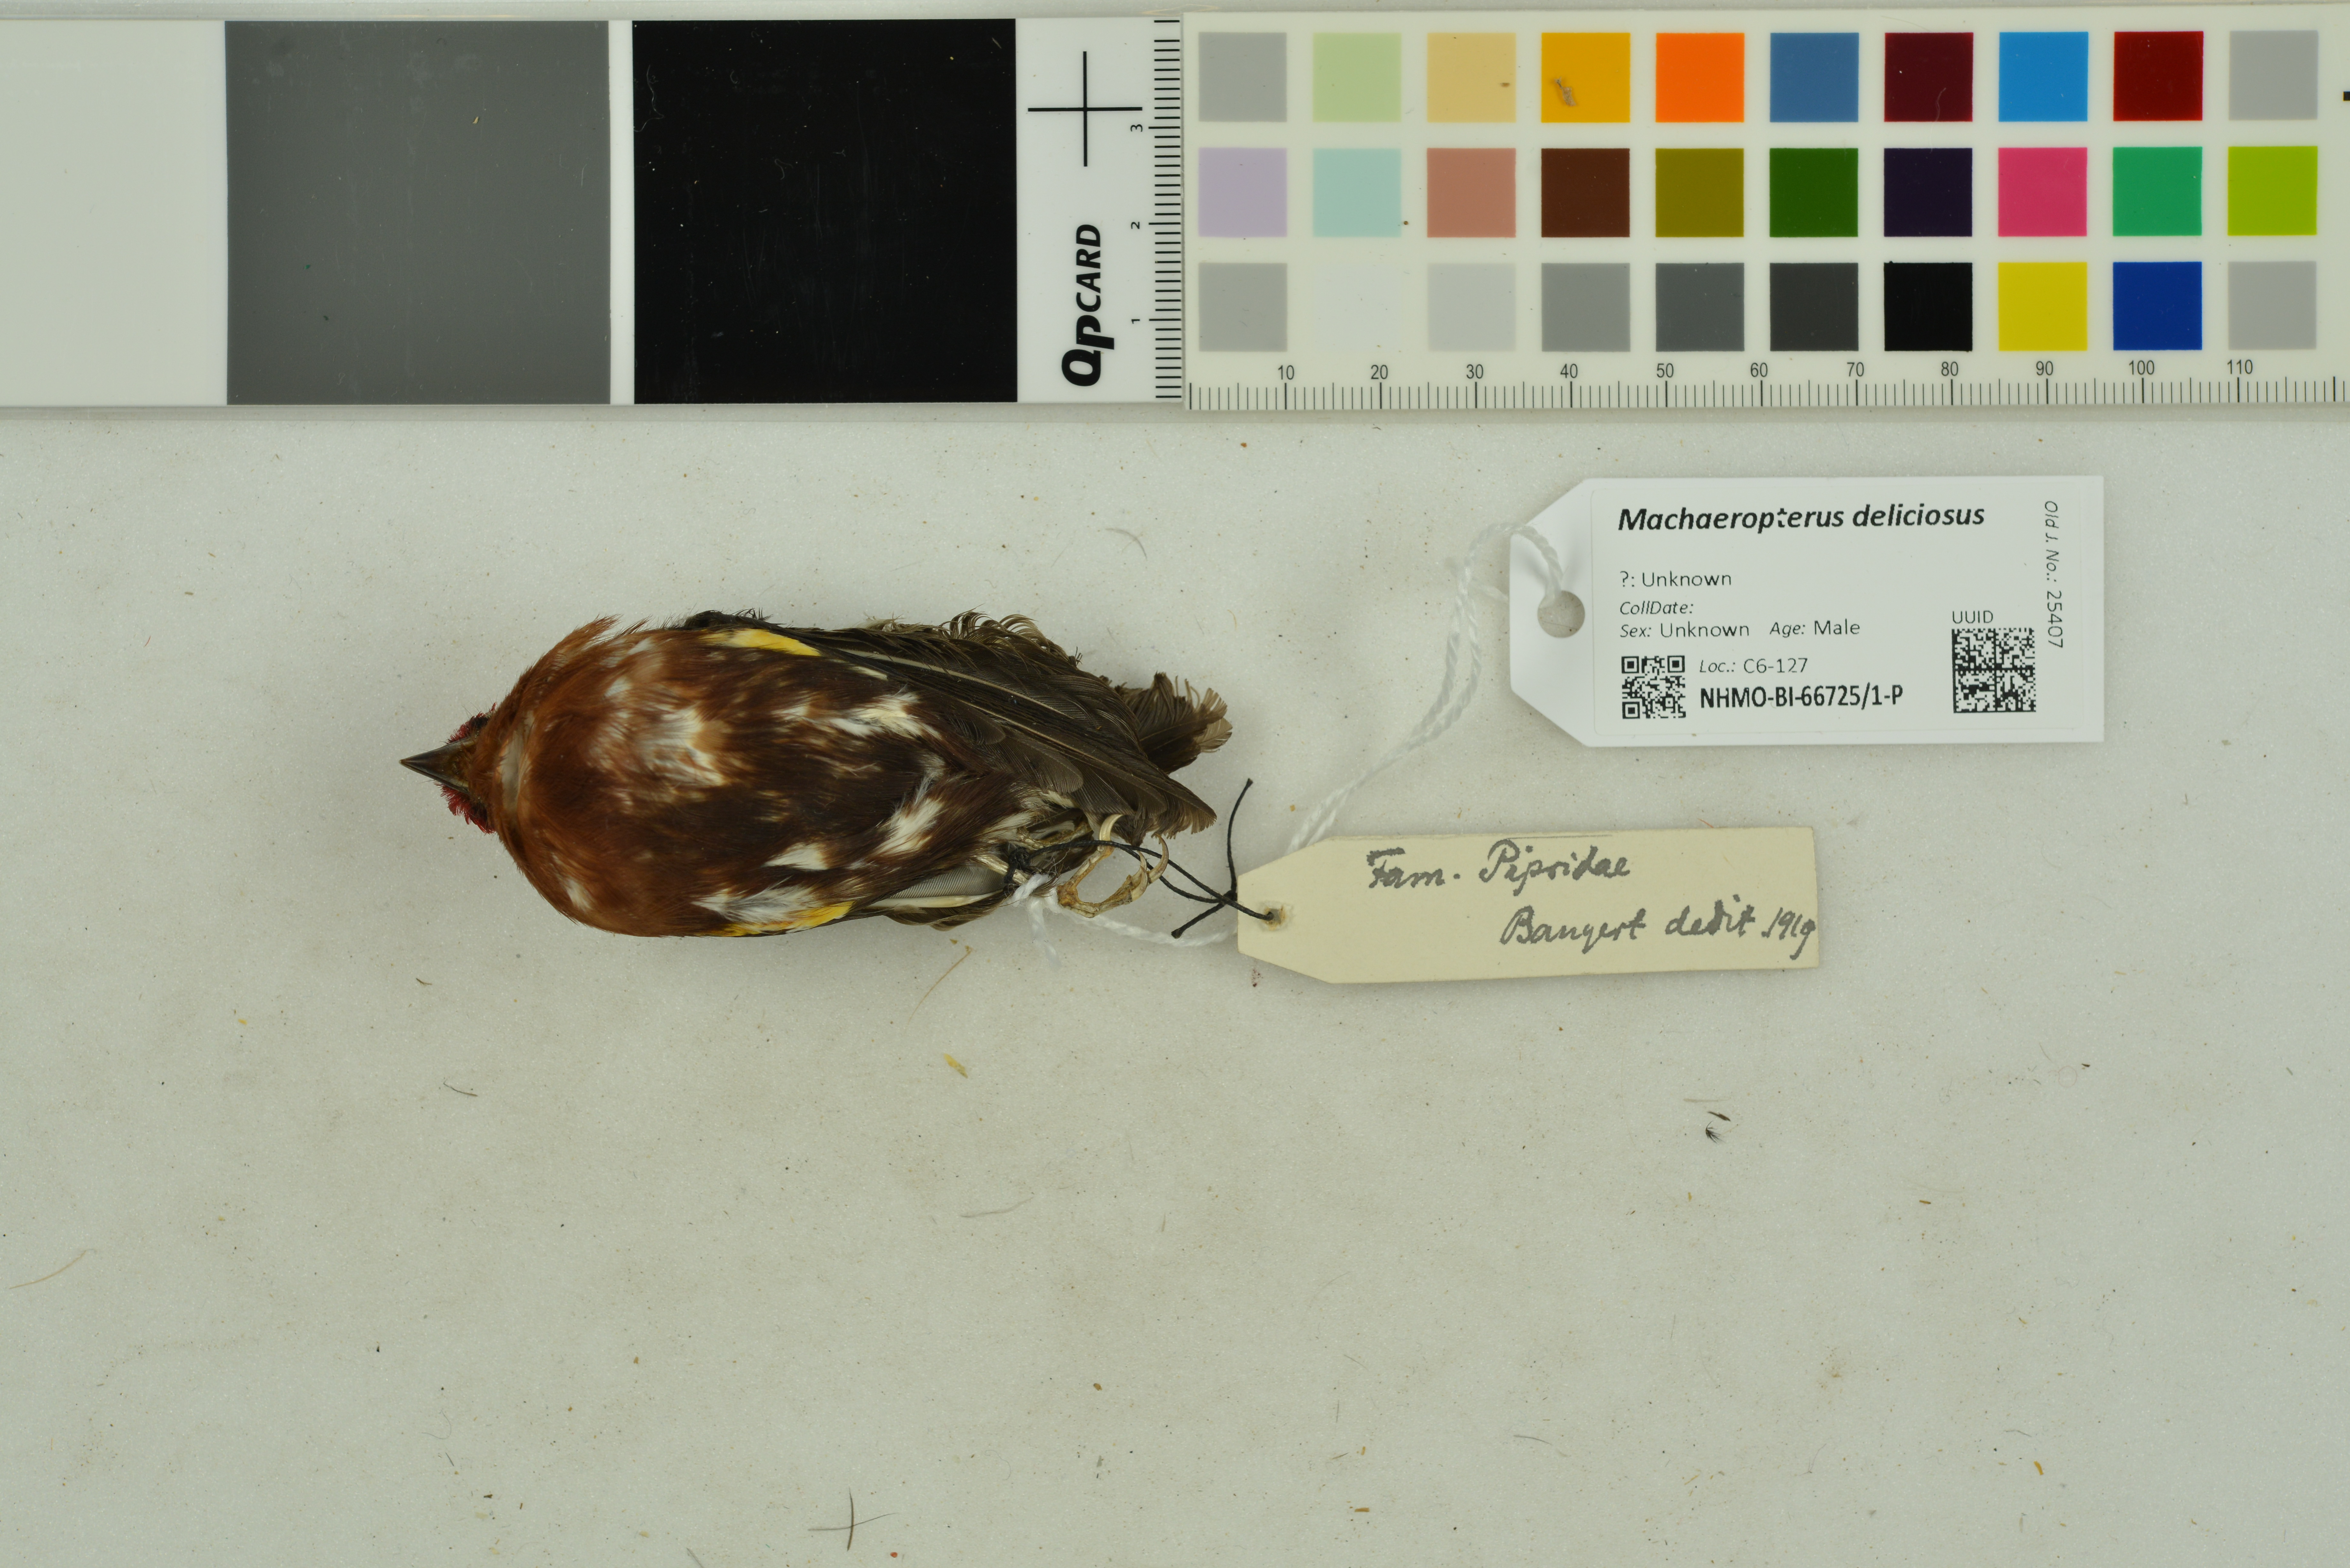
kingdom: Animalia
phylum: Chordata
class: Aves
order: Passeriformes
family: Pipridae
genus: Machaeropterus
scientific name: Machaeropterus deliciosus
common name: Club-winged manakin
